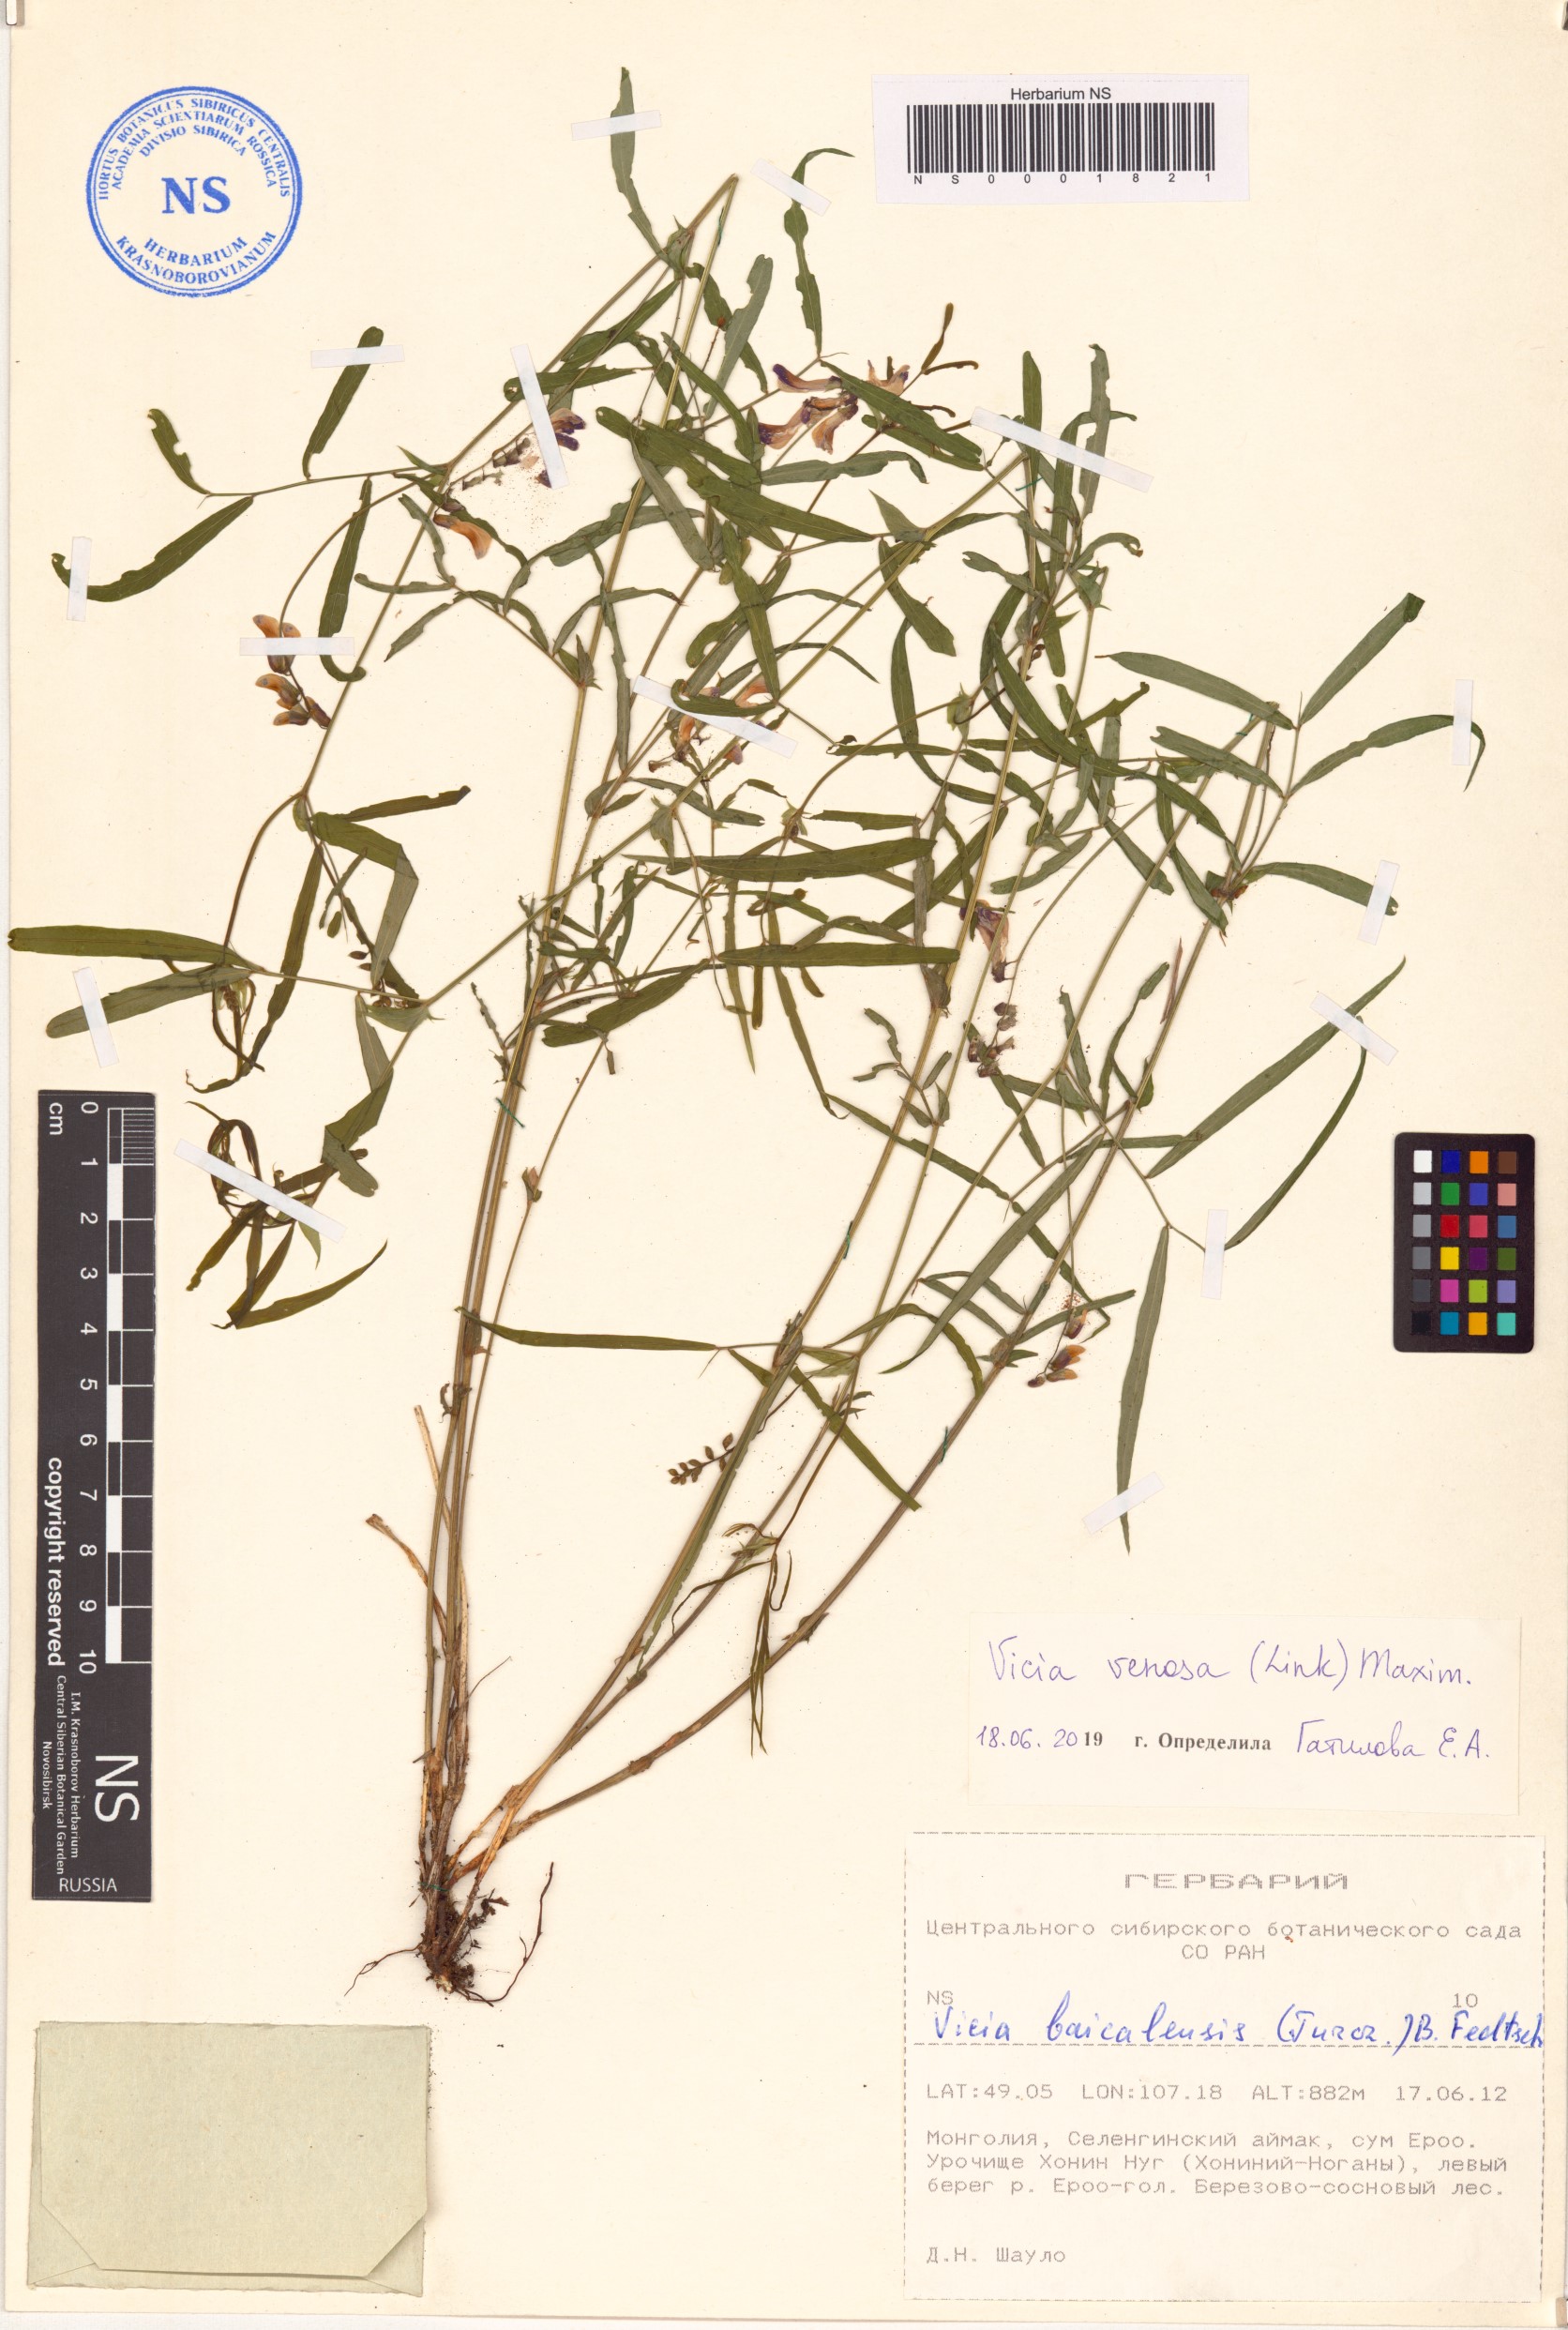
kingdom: Plantae
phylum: Tracheophyta
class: Magnoliopsida
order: Fabales
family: Fabaceae
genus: Vicia
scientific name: Vicia venosa
